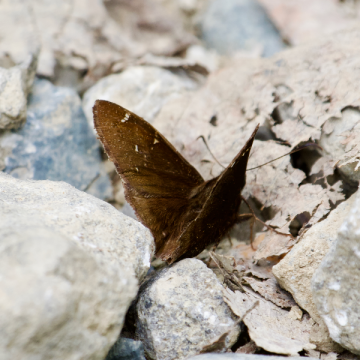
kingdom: Animalia
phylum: Arthropoda
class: Insecta
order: Lepidoptera
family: Hesperiidae
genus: Autochton
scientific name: Autochton
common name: Northern Cloudywing
